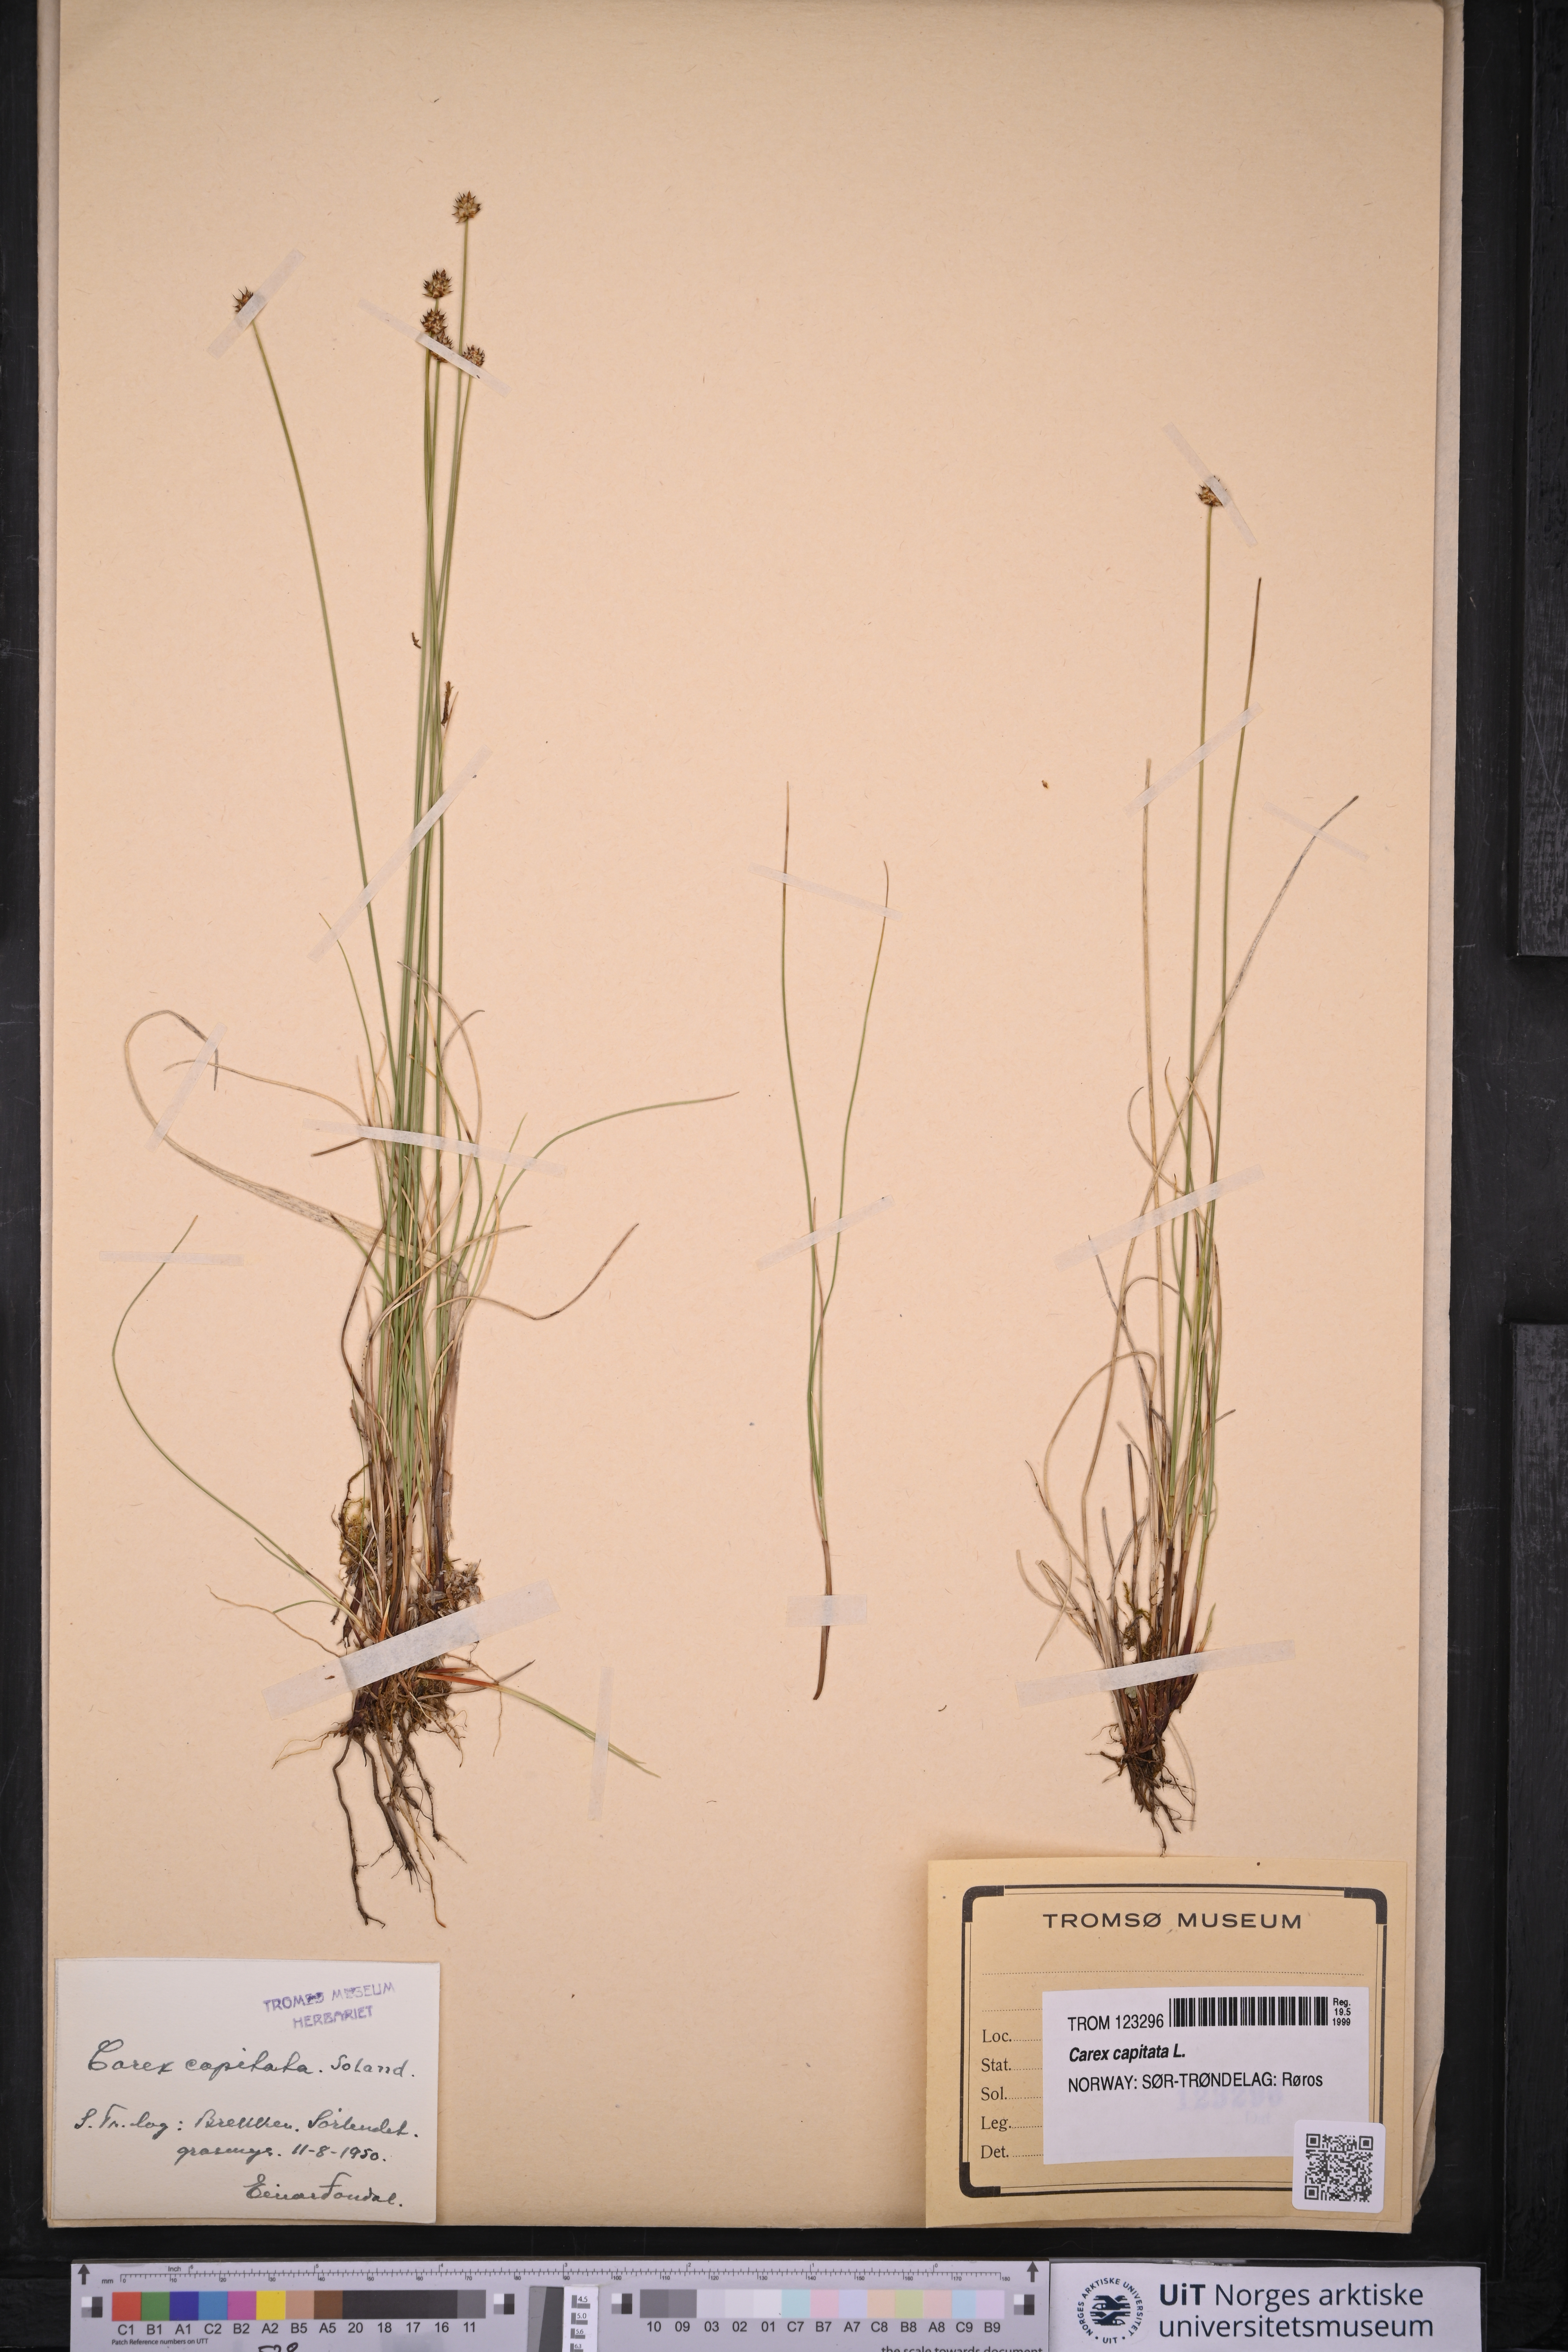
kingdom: Plantae
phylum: Tracheophyta
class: Liliopsida
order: Poales
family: Cyperaceae
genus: Carex
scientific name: Carex capitata
